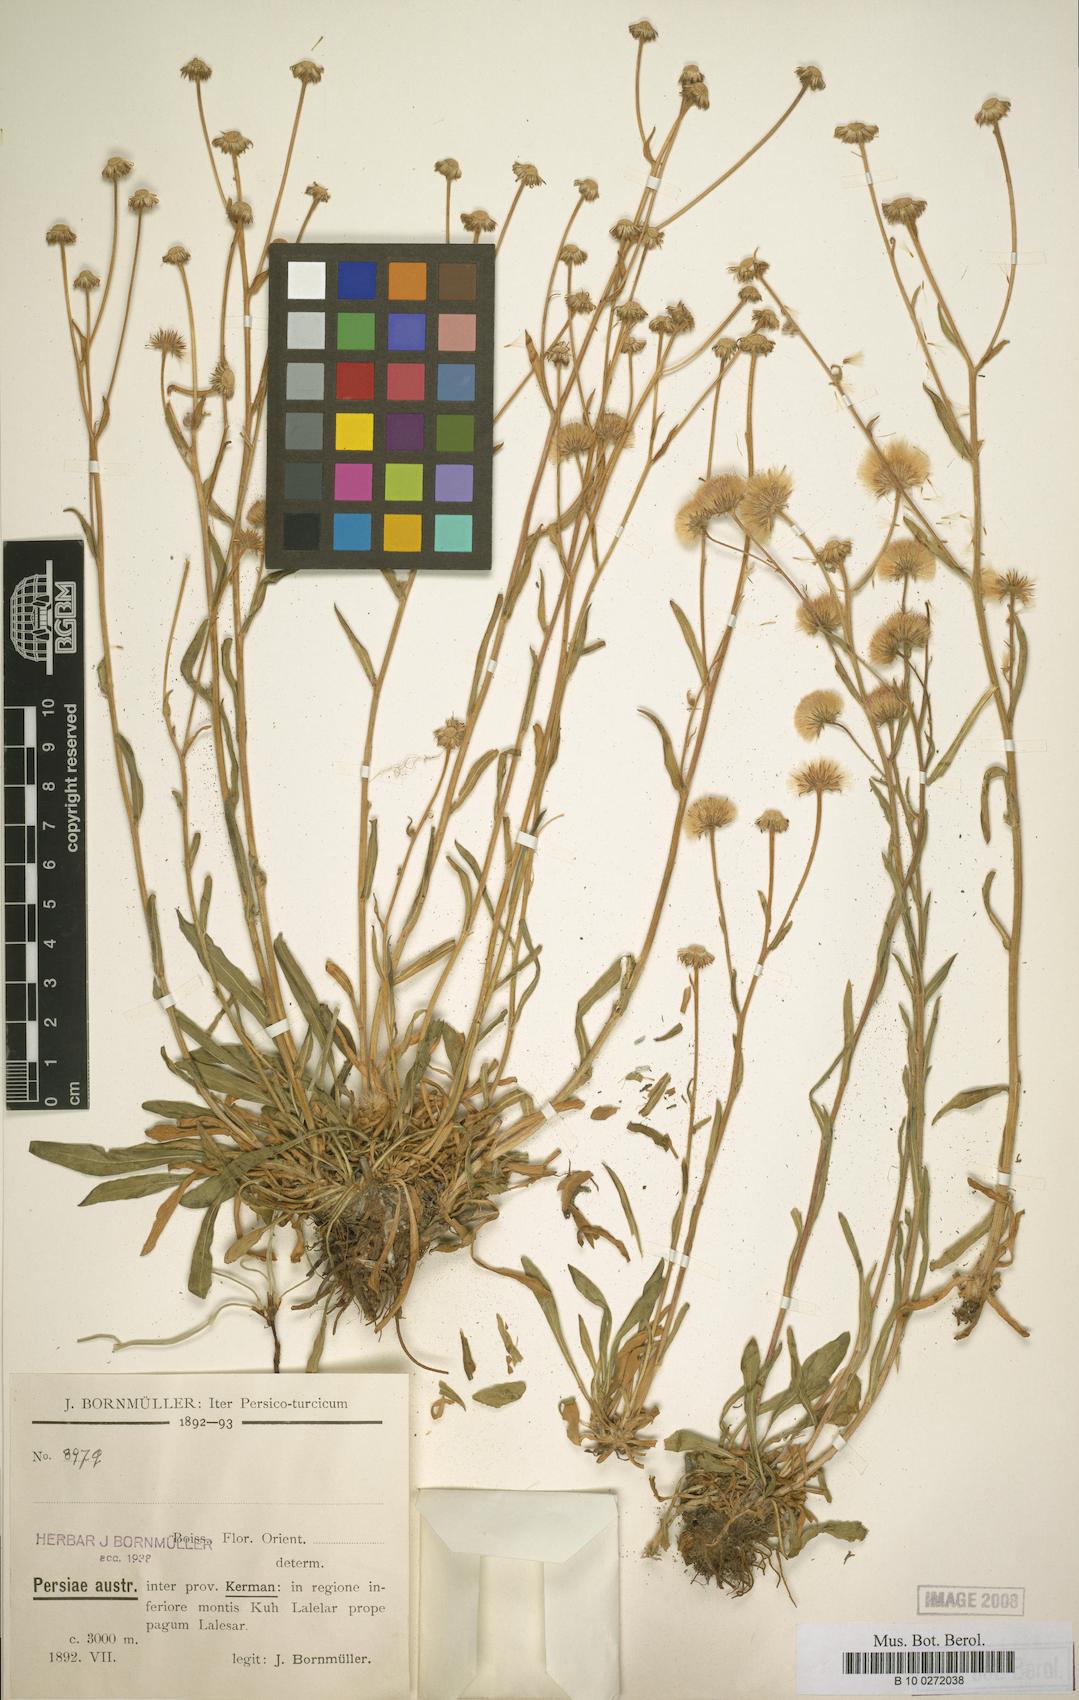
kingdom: Plantae
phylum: Tracheophyta
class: Magnoliopsida
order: Asterales
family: Asteraceae
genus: Erigeron
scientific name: Erigeron lalehzaricus
